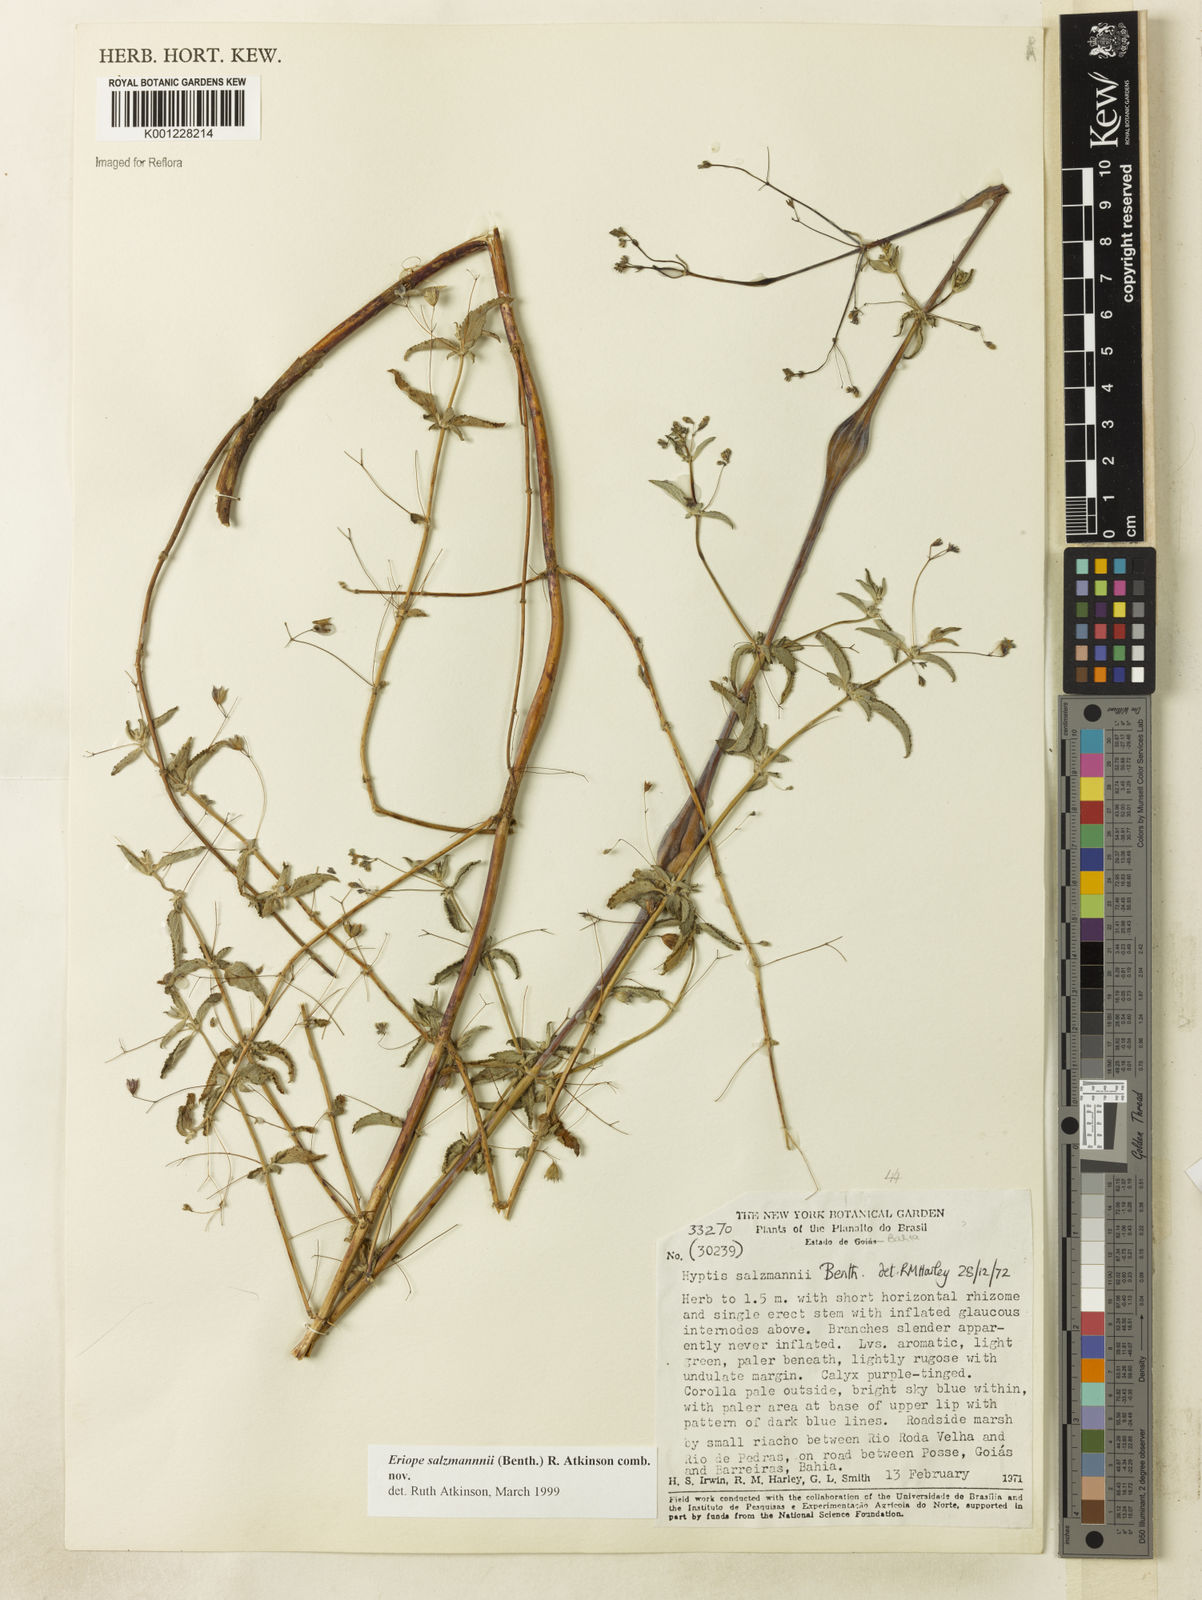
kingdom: Plantae
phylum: Tracheophyta
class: Magnoliopsida
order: Lamiales
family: Lamiaceae
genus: Hypenia
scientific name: Hypenia salzmannii
